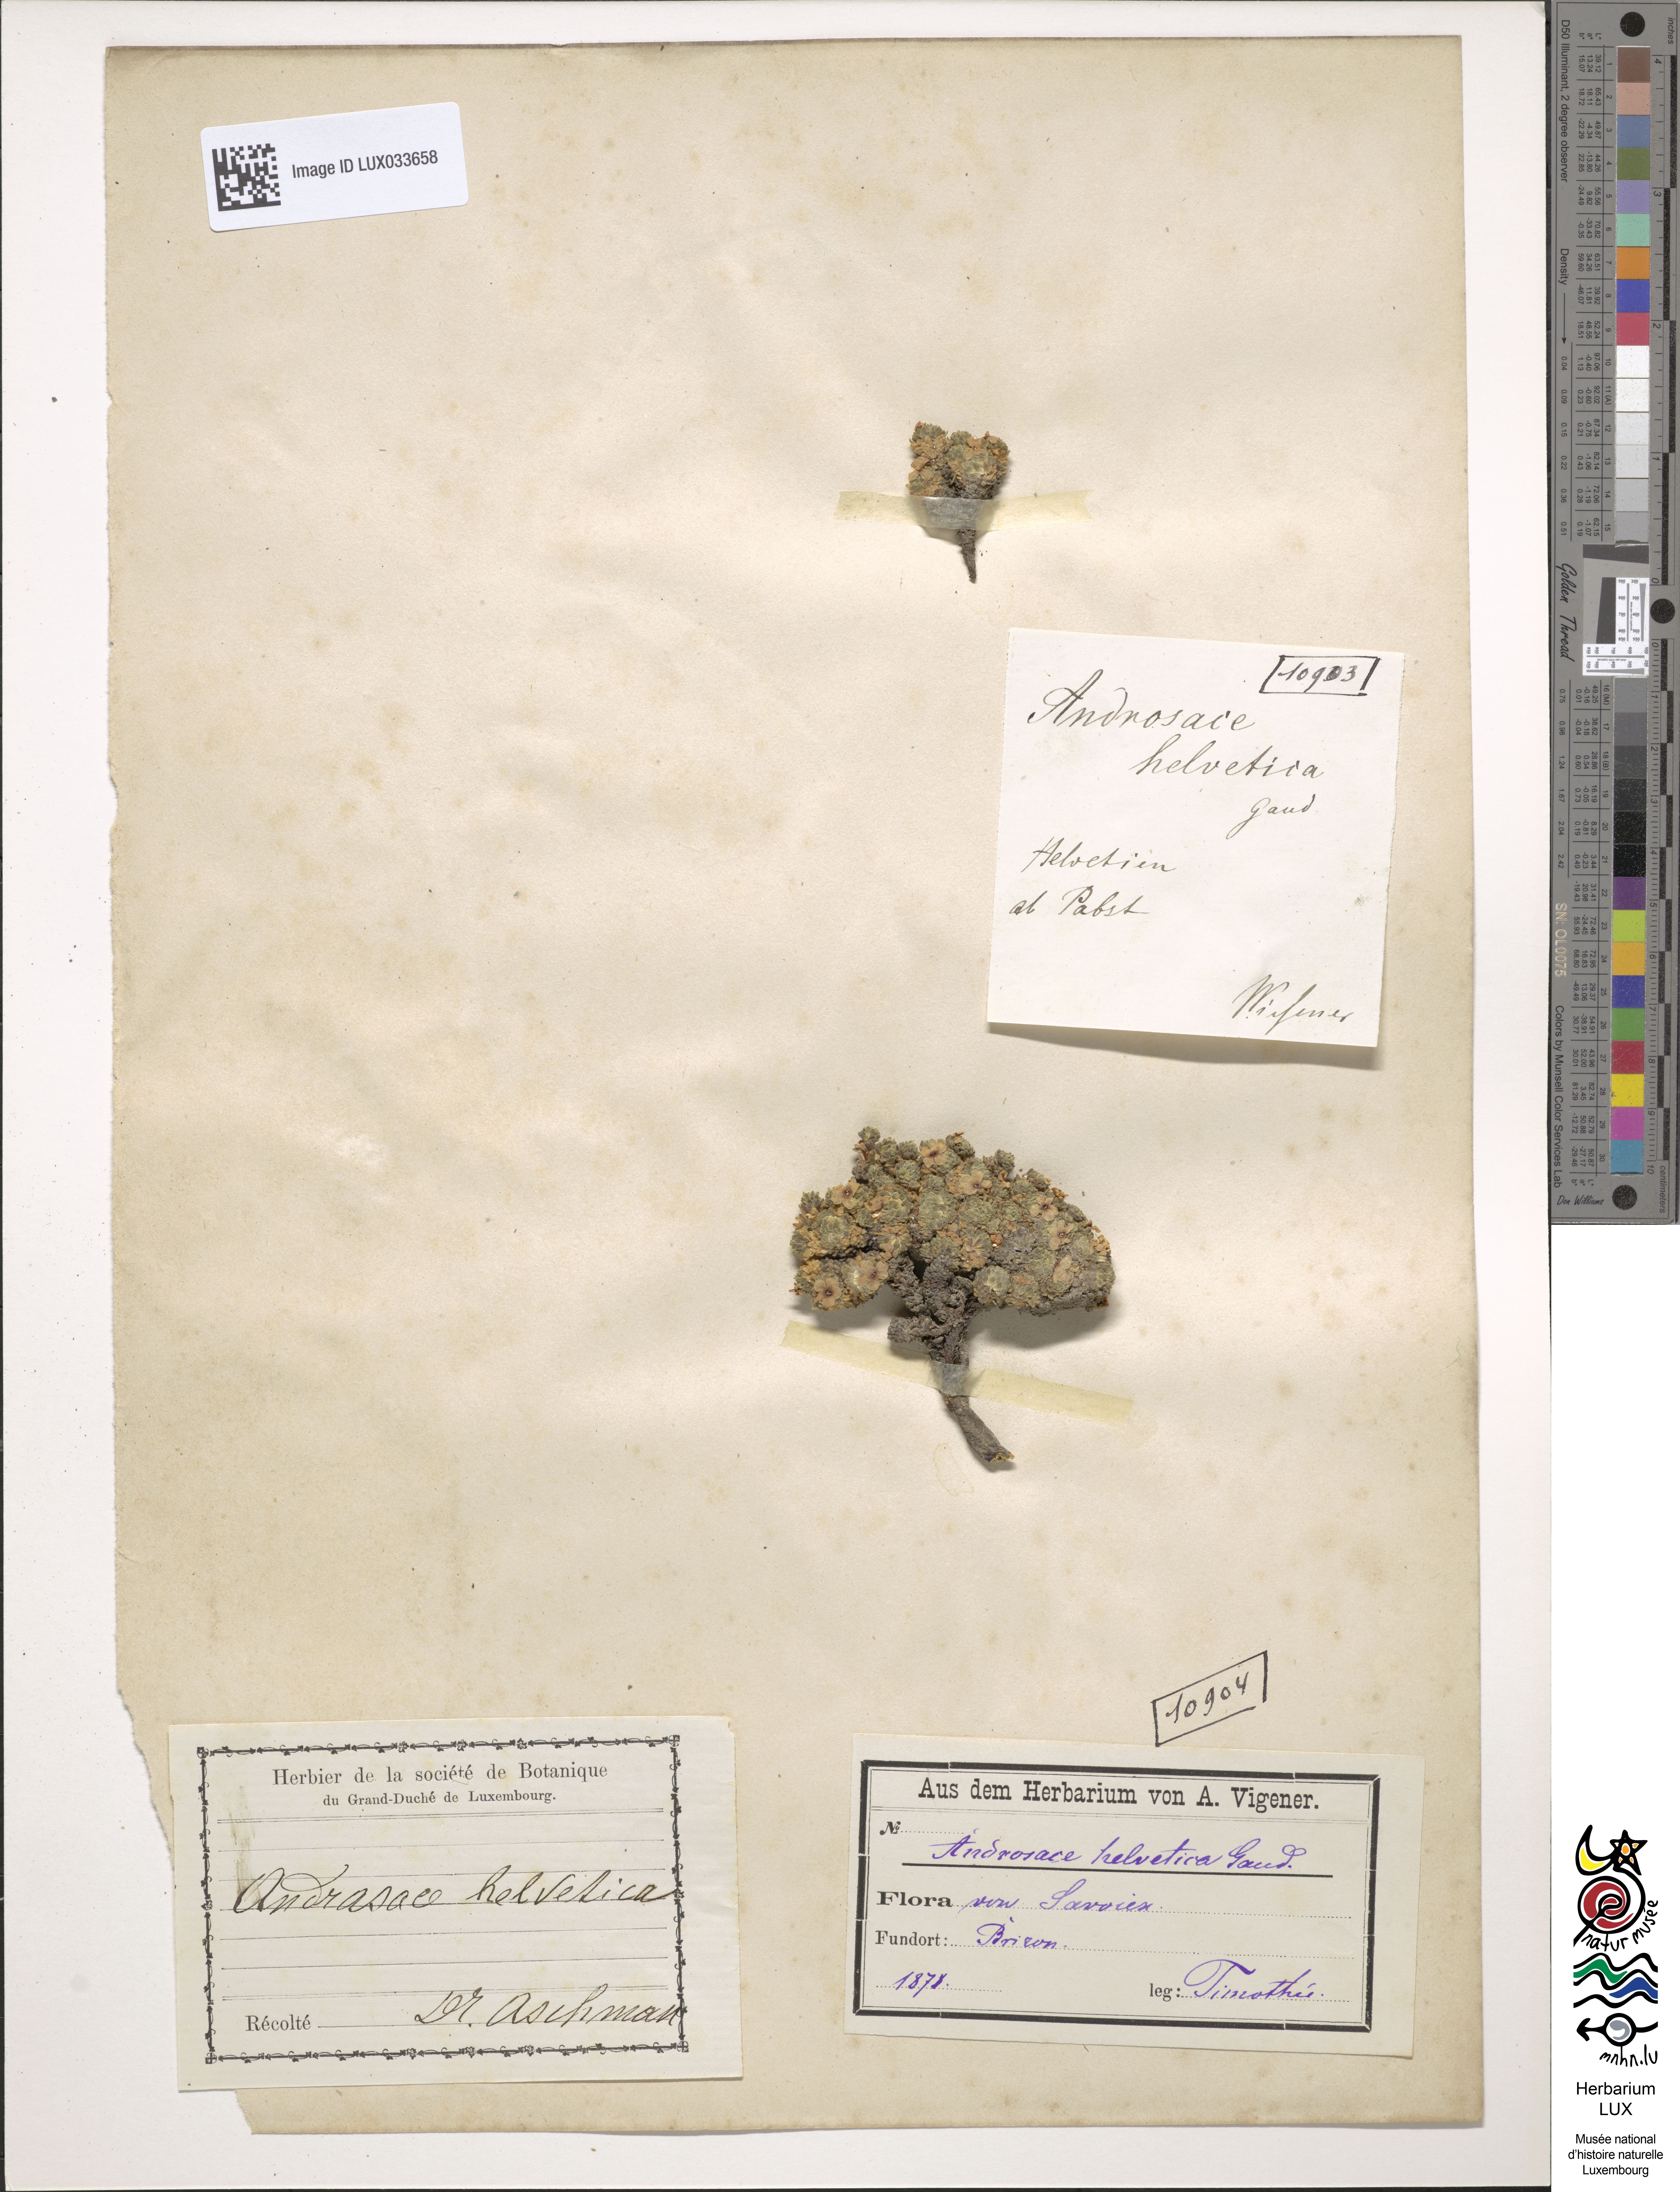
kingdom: Plantae
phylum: Tracheophyta
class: Magnoliopsida
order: Ericales
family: Primulaceae
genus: Androsace
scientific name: Androsace helvetica
